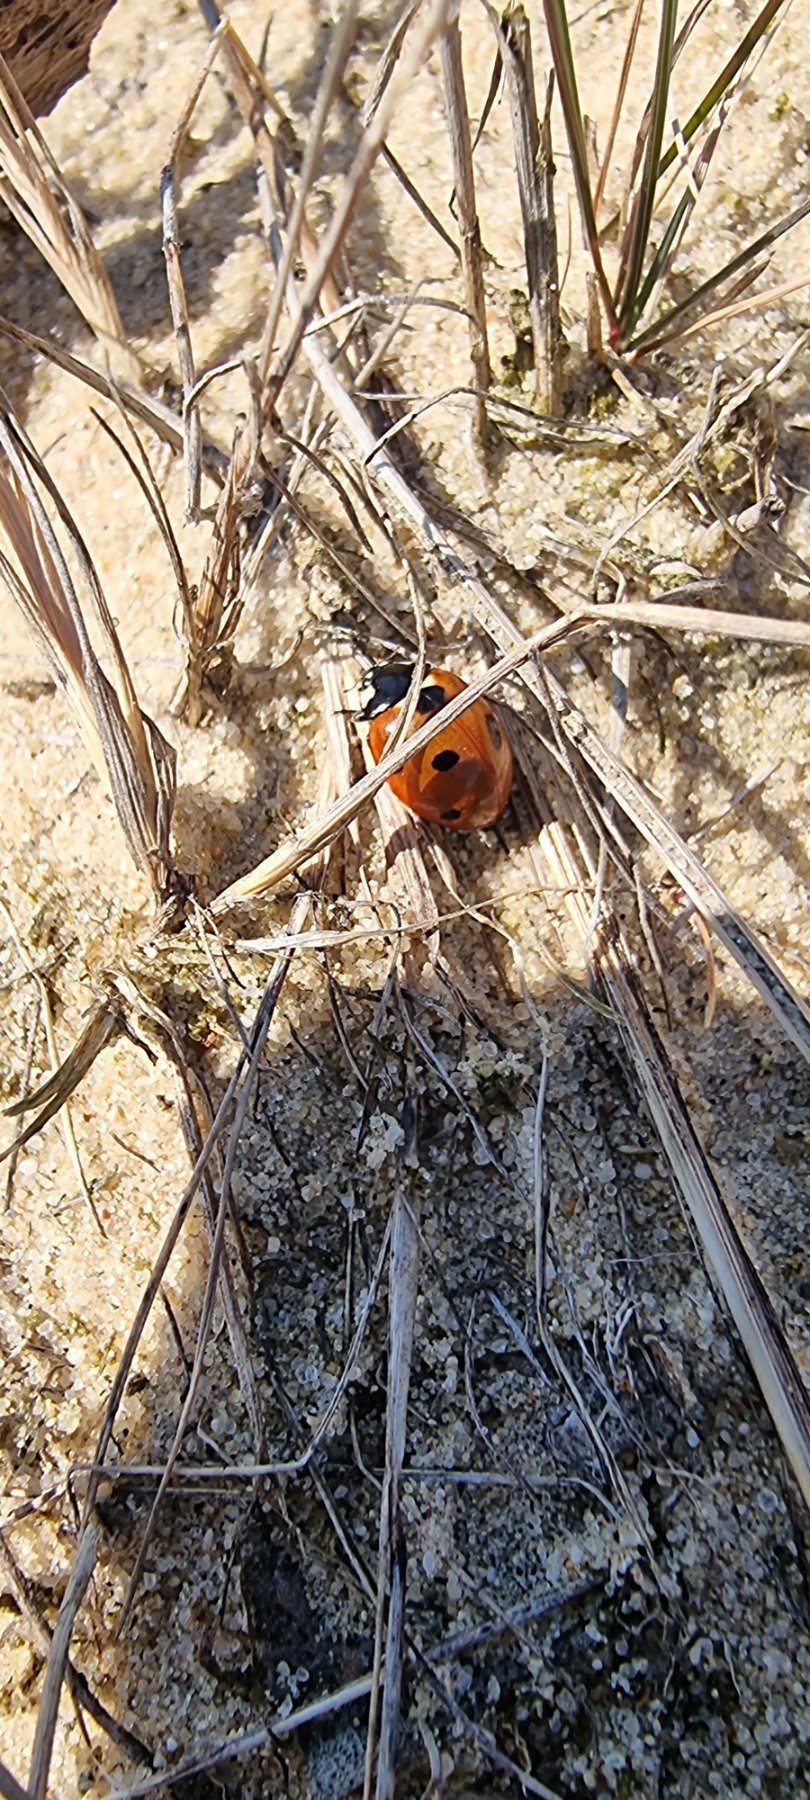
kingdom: Animalia
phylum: Arthropoda
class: Insecta
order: Coleoptera
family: Coccinellidae
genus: Coccinella
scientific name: Coccinella septempunctata
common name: Syvplettet mariehøne
